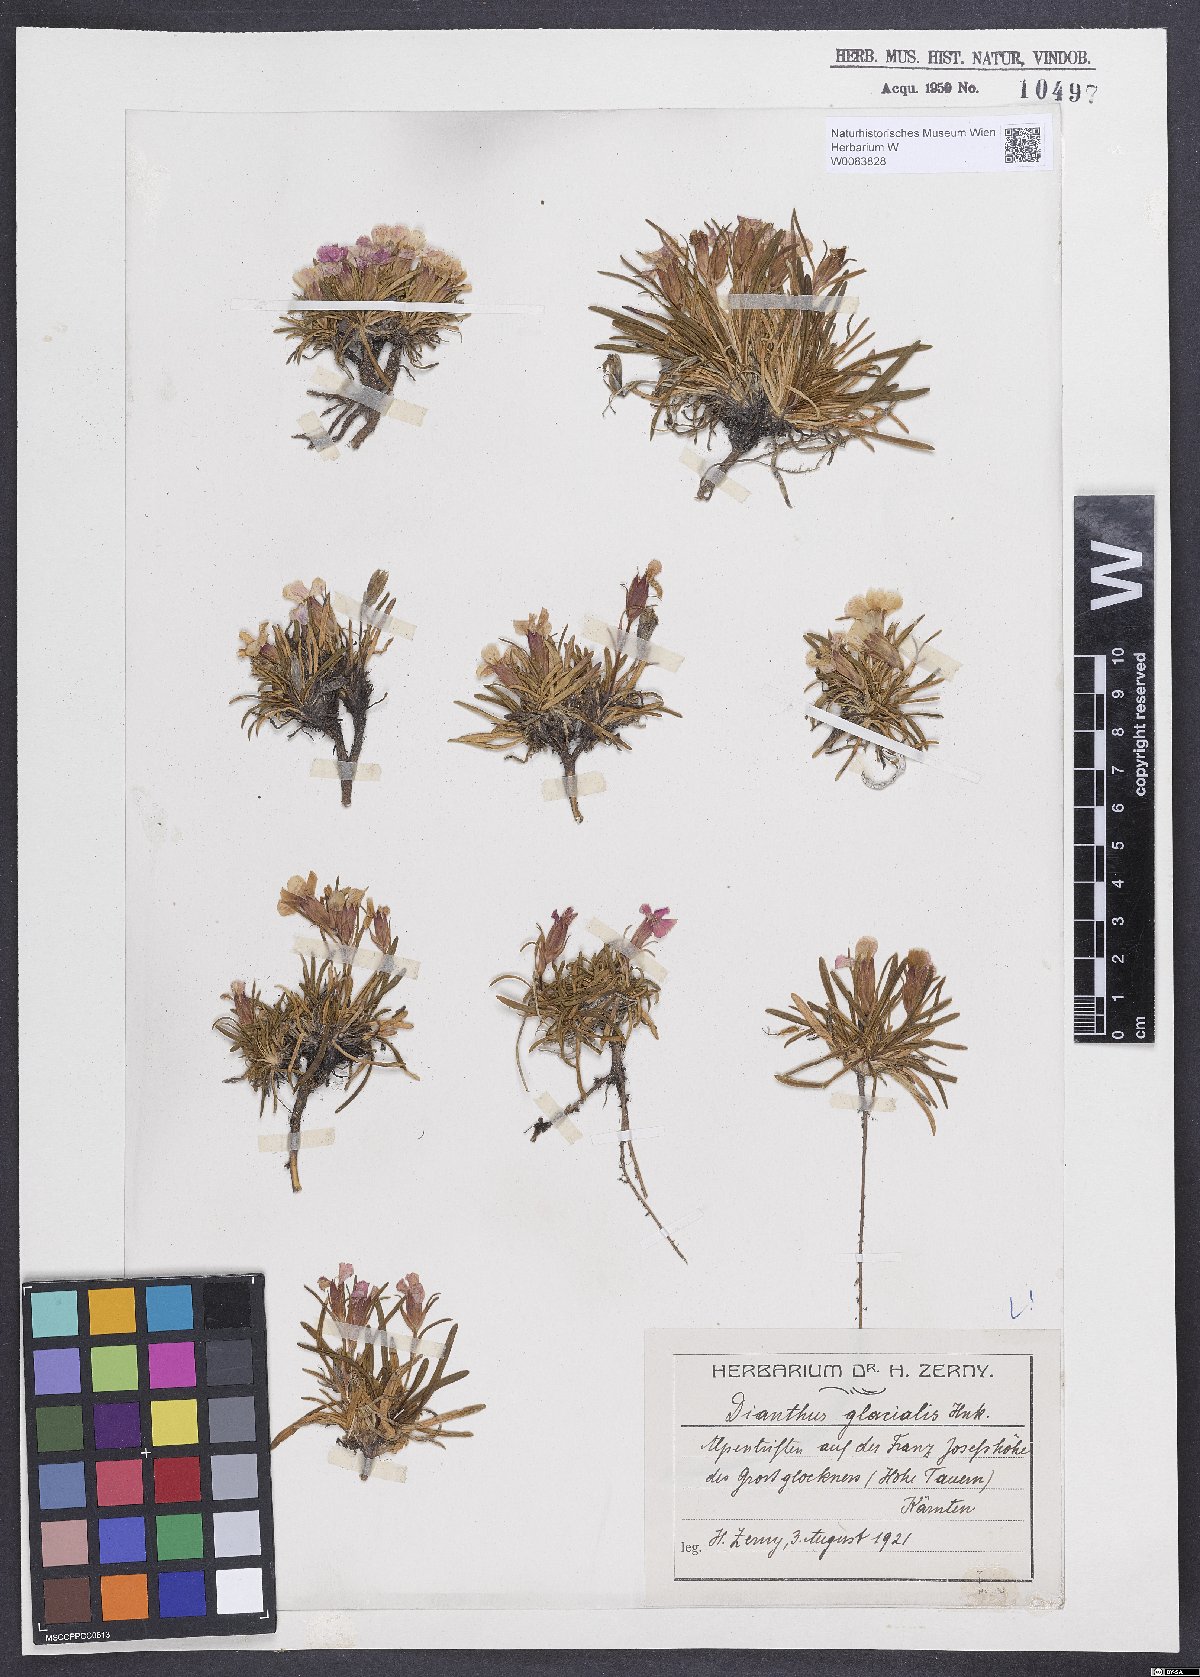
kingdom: Plantae
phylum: Tracheophyta
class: Magnoliopsida
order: Caryophyllales
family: Caryophyllaceae
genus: Dianthus
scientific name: Dianthus glacialis
